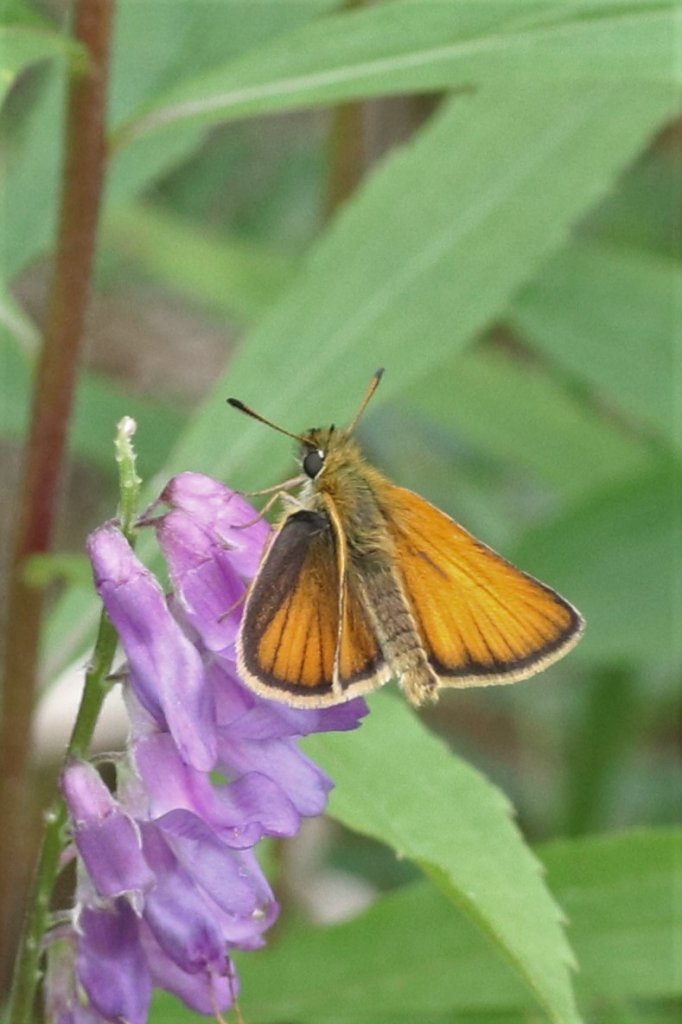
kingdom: Animalia
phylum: Arthropoda
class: Insecta
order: Lepidoptera
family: Hesperiidae
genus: Thymelicus
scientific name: Thymelicus lineola
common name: European Skipper
